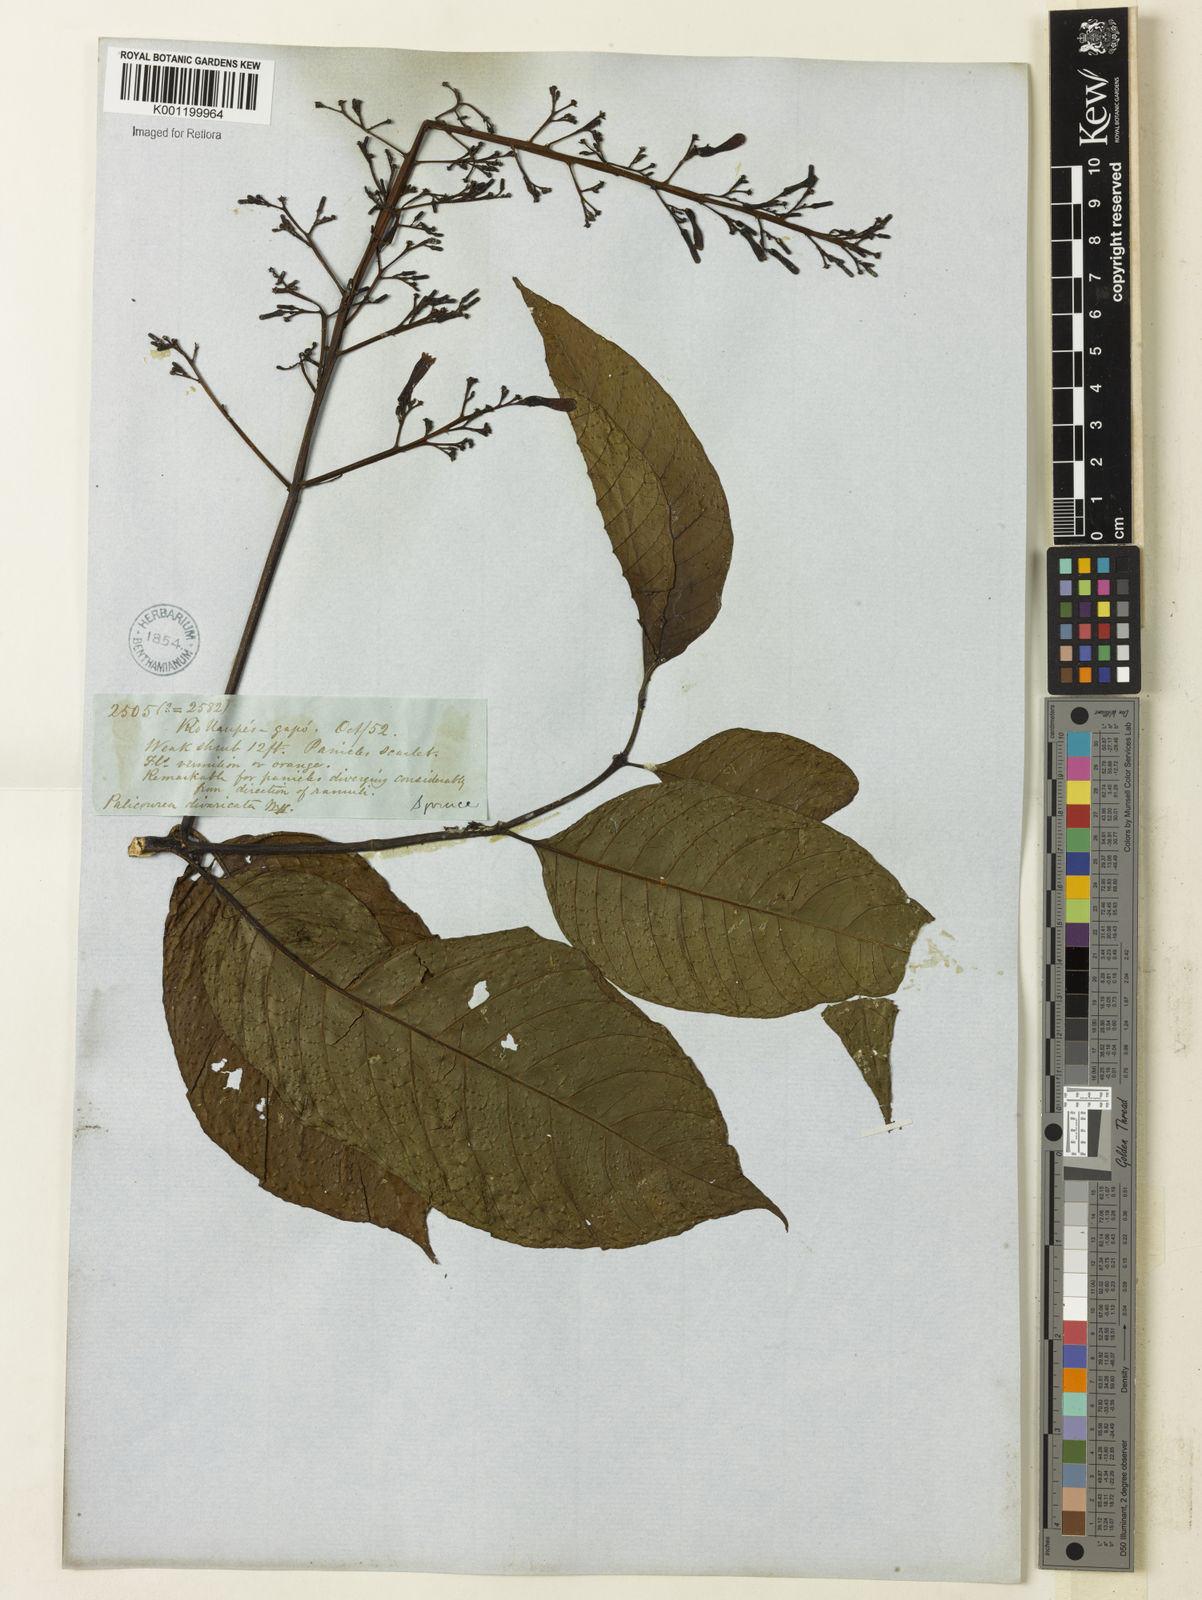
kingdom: Plantae
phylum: Tracheophyta
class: Magnoliopsida
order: Gentianales
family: Rubiaceae
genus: Palicourea
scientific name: Palicourea
